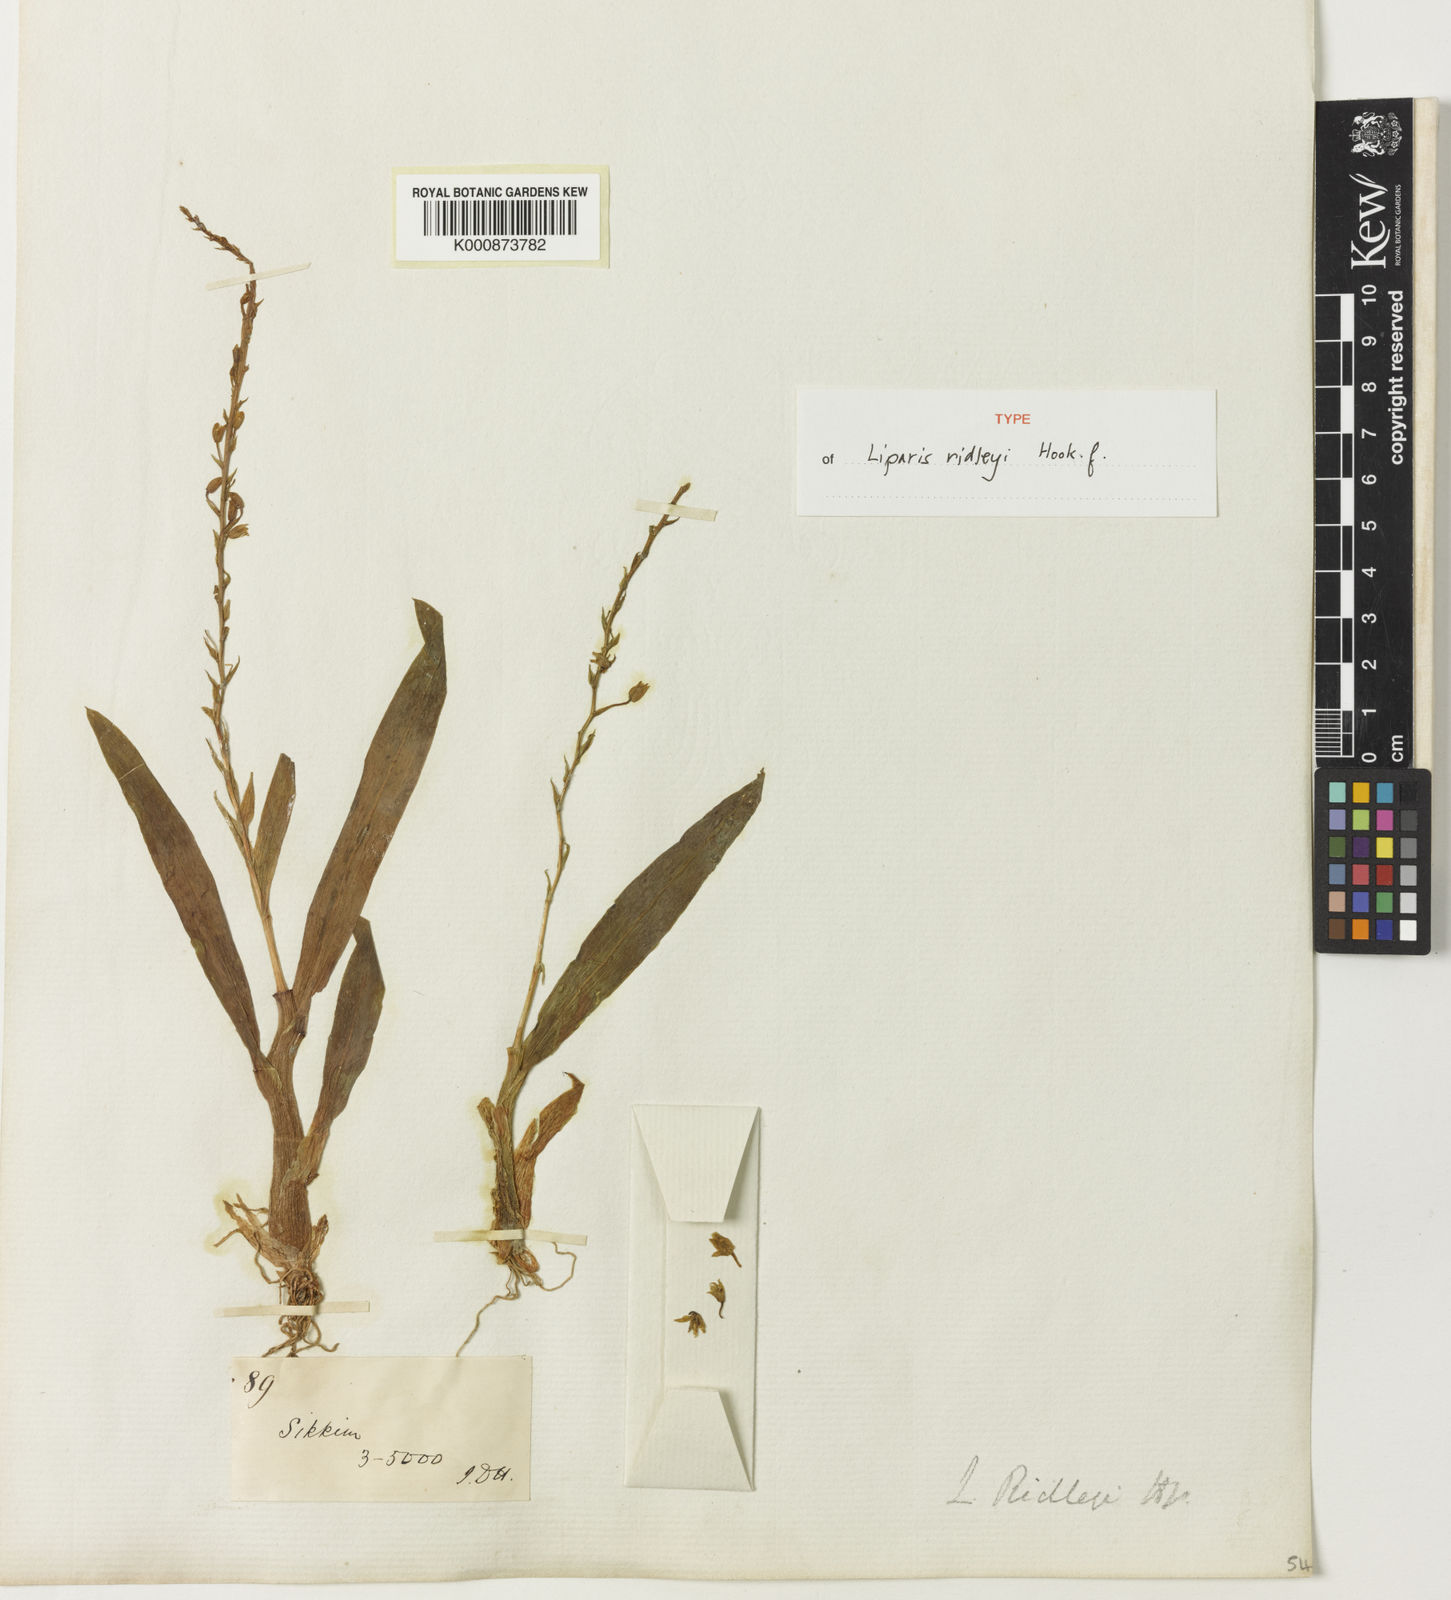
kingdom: Plantae
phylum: Tracheophyta
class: Liliopsida
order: Asparagales
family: Orchidaceae
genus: Liparis
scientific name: Liparis resupinata
